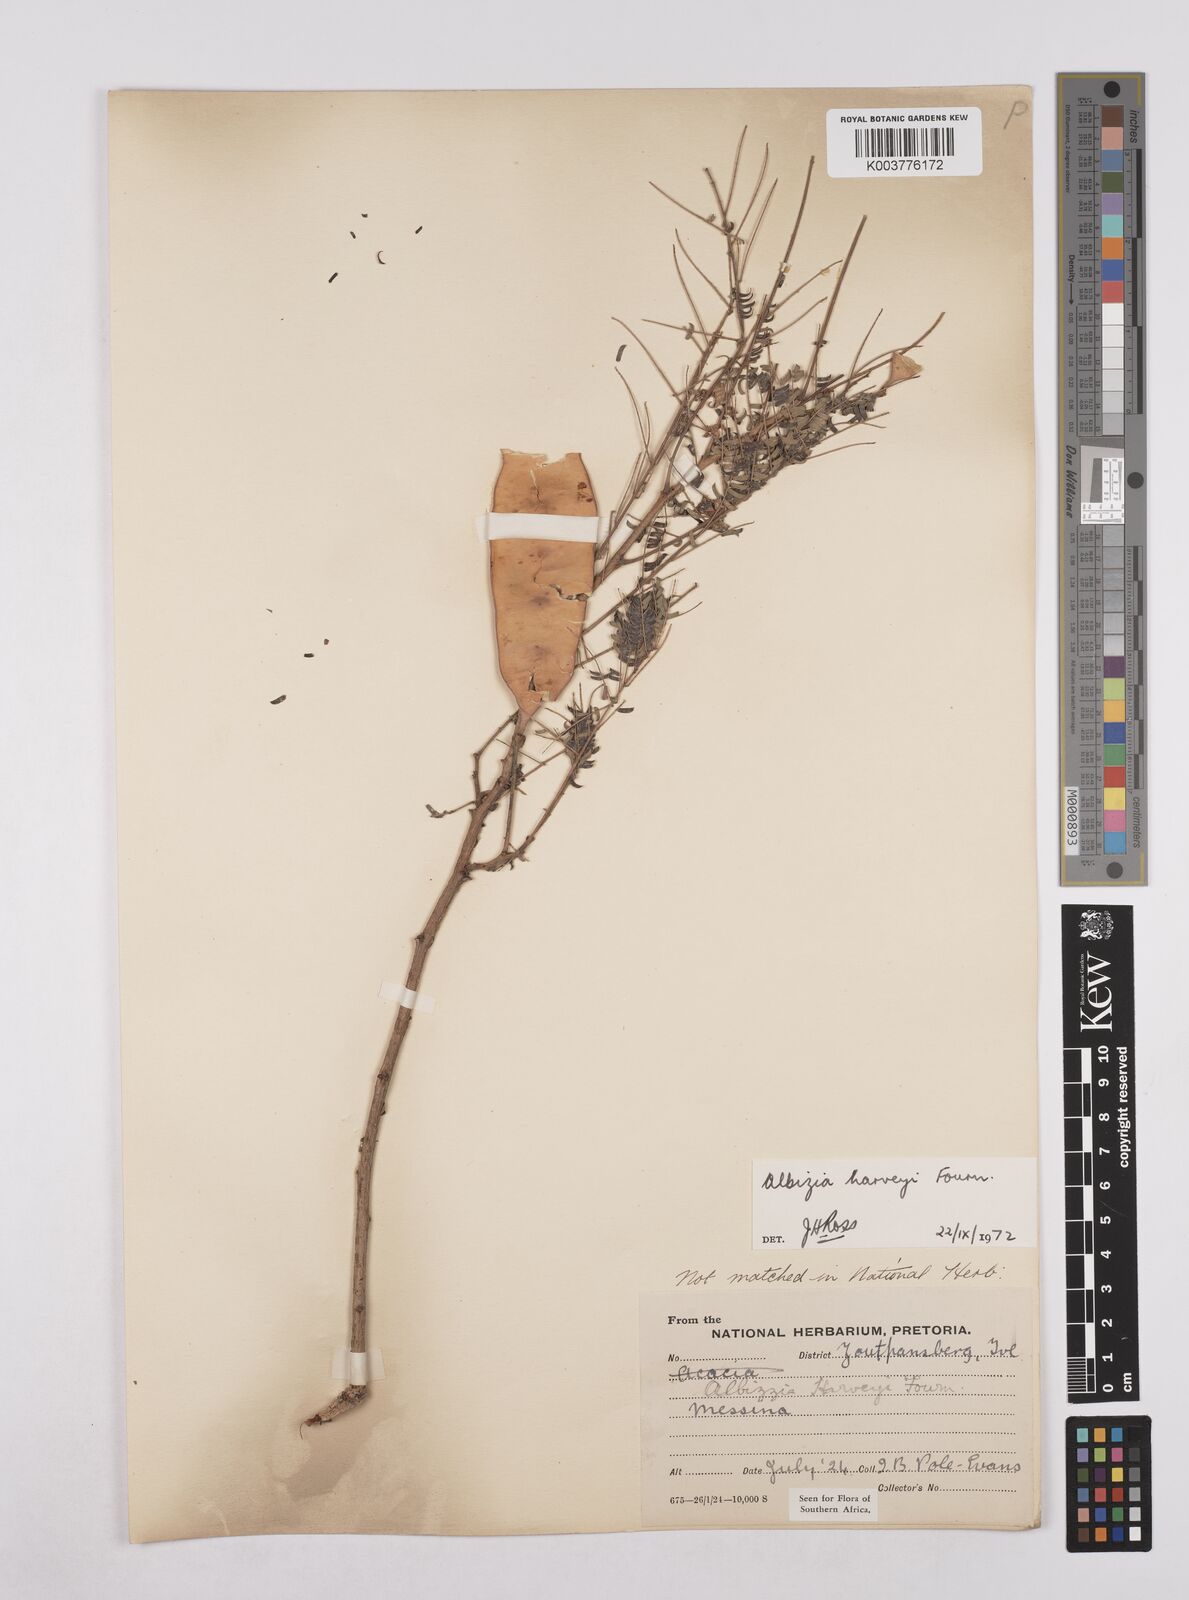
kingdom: Plantae
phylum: Tracheophyta
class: Magnoliopsida
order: Fabales
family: Fabaceae
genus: Albizia
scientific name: Albizia harveyi
